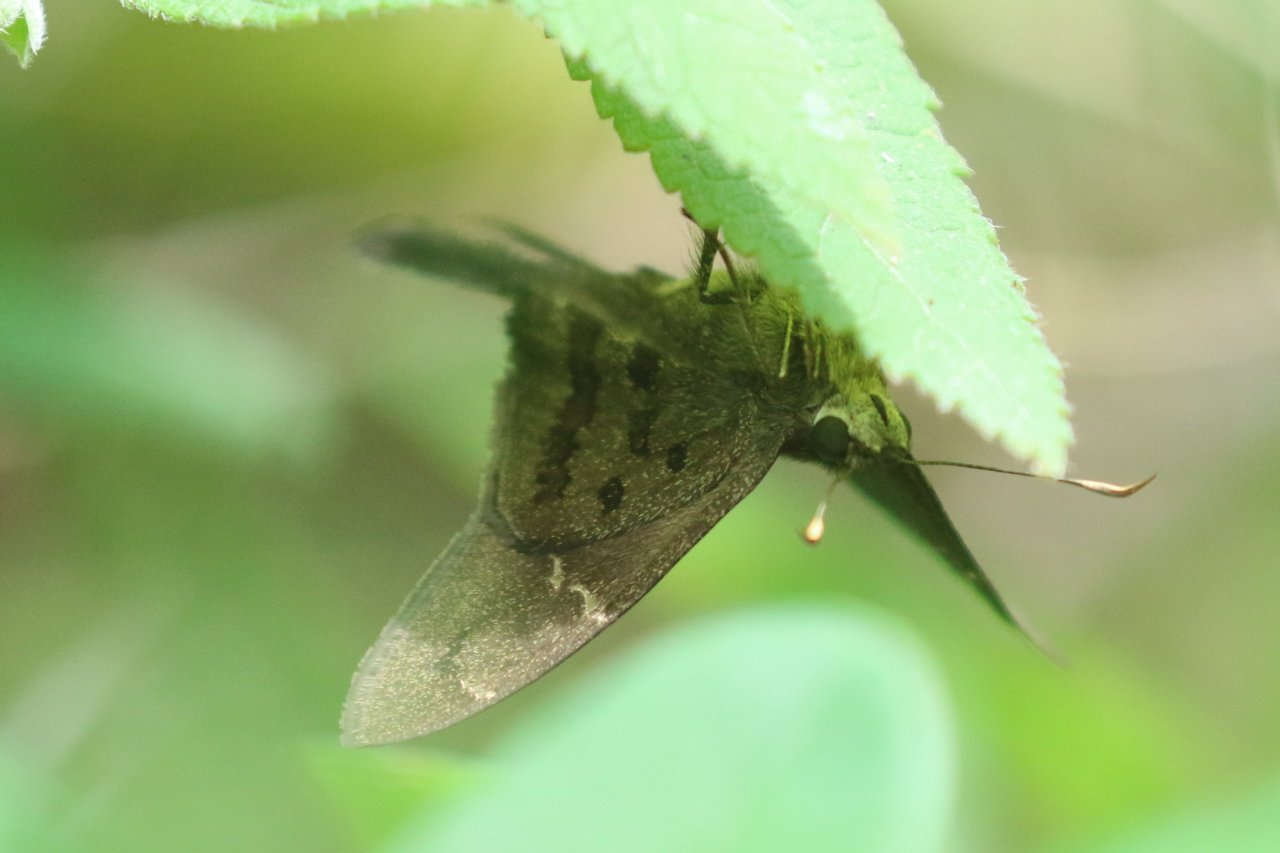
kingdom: Animalia
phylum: Arthropoda
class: Insecta
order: Lepidoptera
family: Hesperiidae
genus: Urbanus
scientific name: Urbanus procne
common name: Brown Longtail
